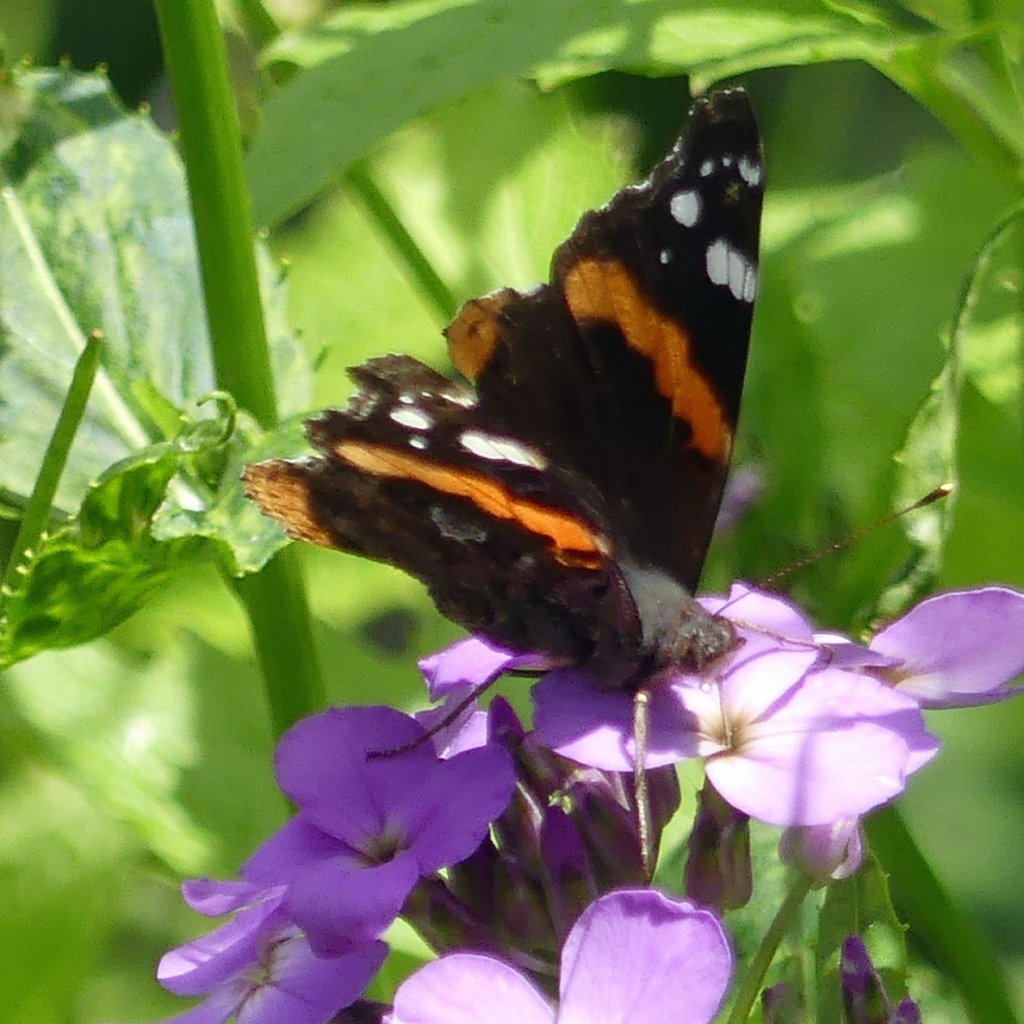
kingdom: Animalia
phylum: Arthropoda
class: Insecta
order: Lepidoptera
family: Nymphalidae
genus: Vanessa
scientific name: Vanessa atalanta
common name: Red Admiral
